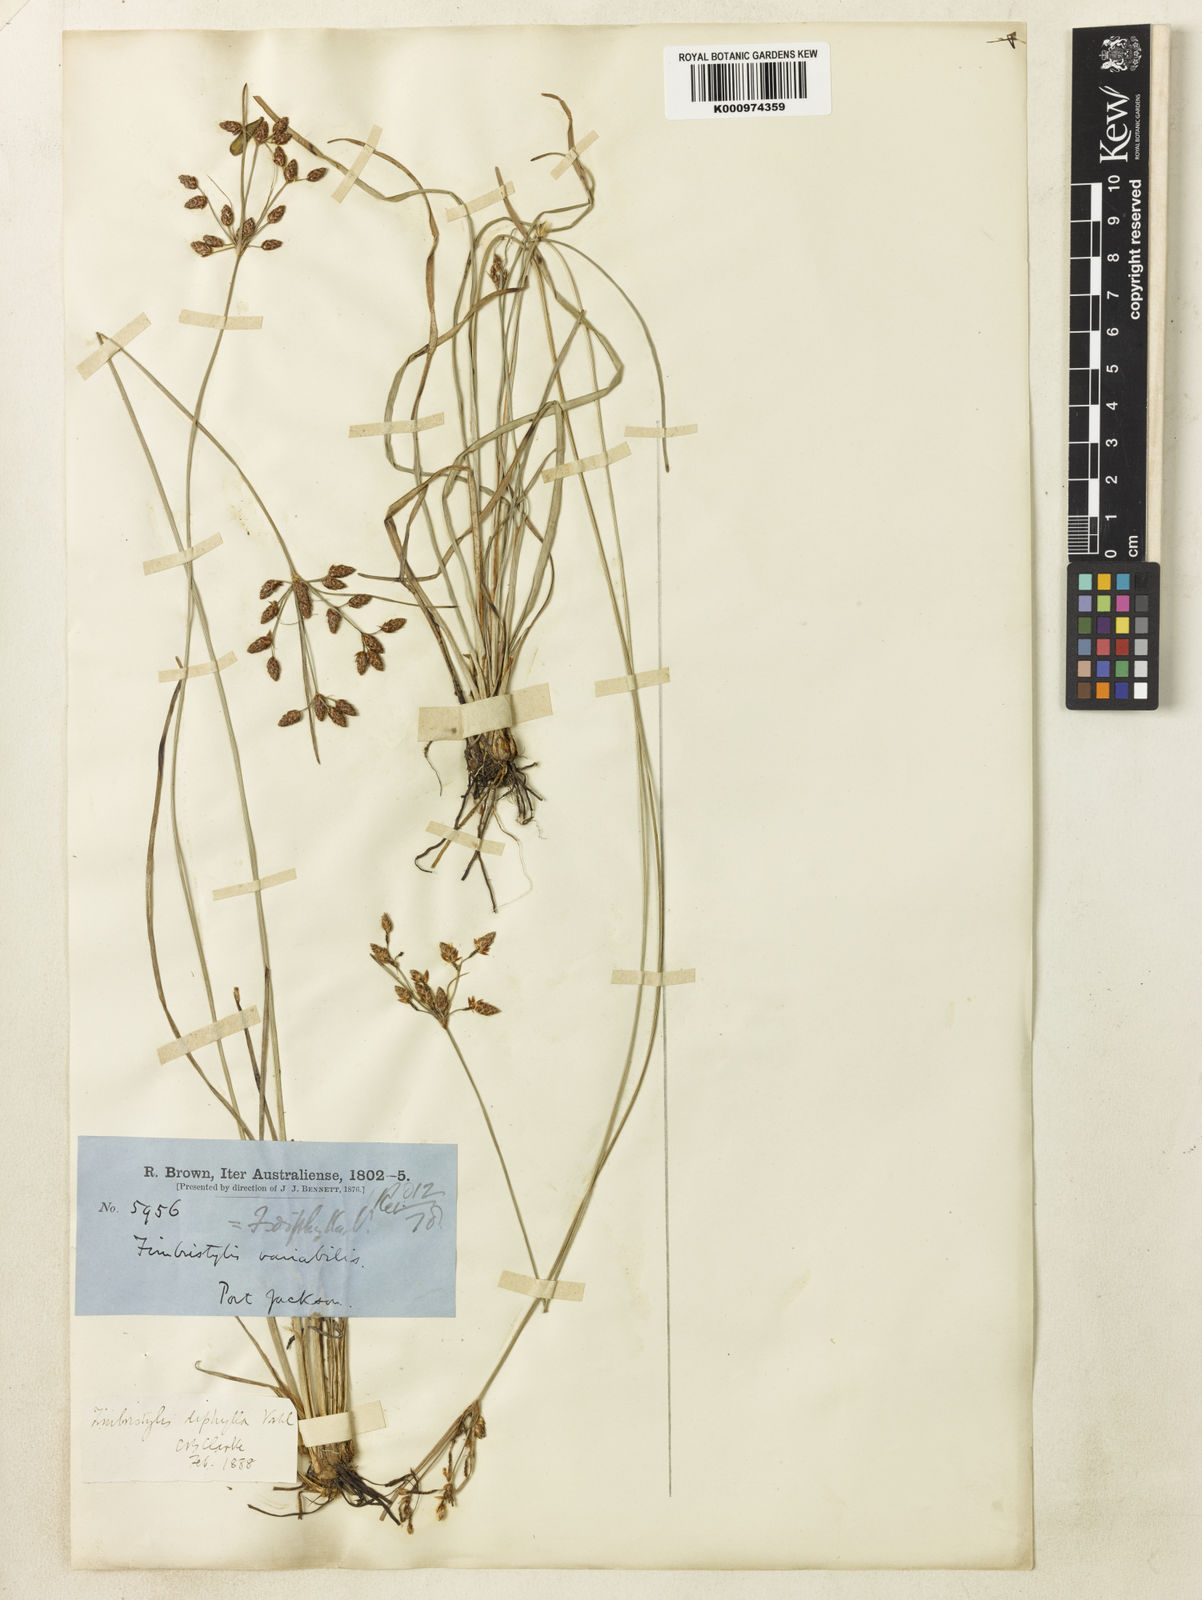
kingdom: Plantae
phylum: Tracheophyta
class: Liliopsida
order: Poales
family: Cyperaceae
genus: Fimbristylis
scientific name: Fimbristylis dichotoma
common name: Forked fimbry
